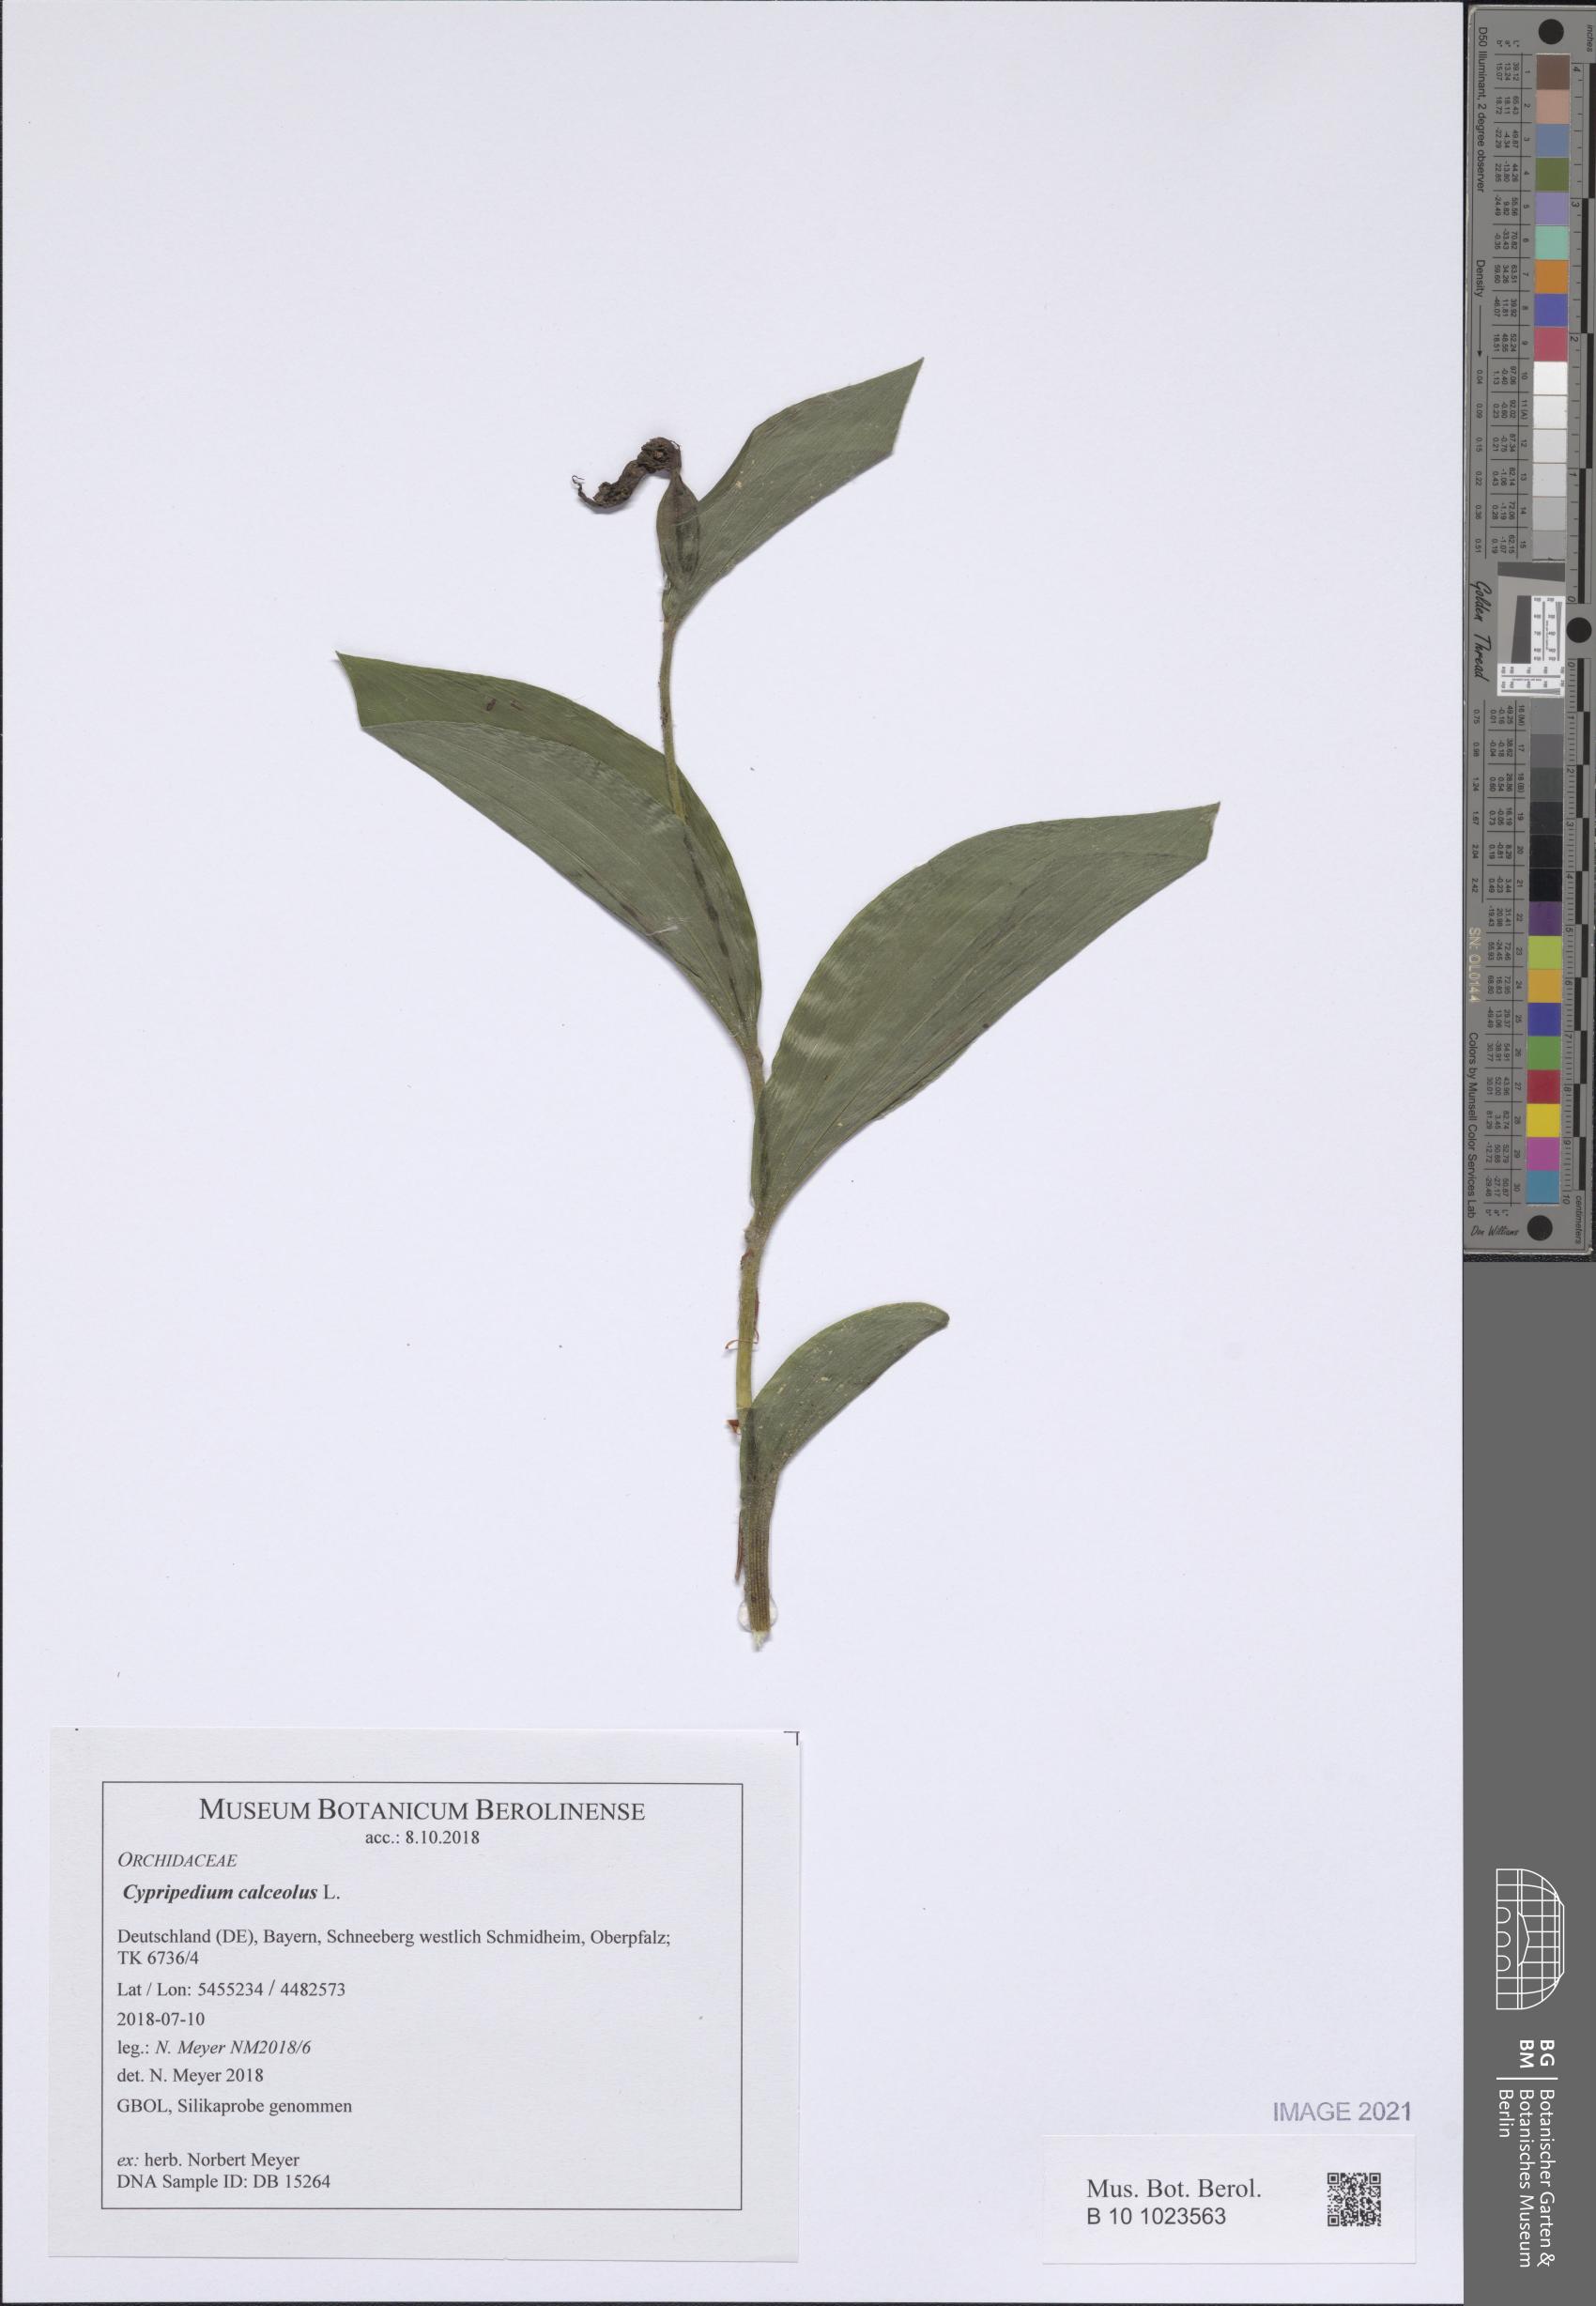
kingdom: Plantae
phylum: Tracheophyta
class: Liliopsida
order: Asparagales
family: Orchidaceae
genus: Cypripedium
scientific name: Cypripedium calceolus
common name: Lady's-slipper
